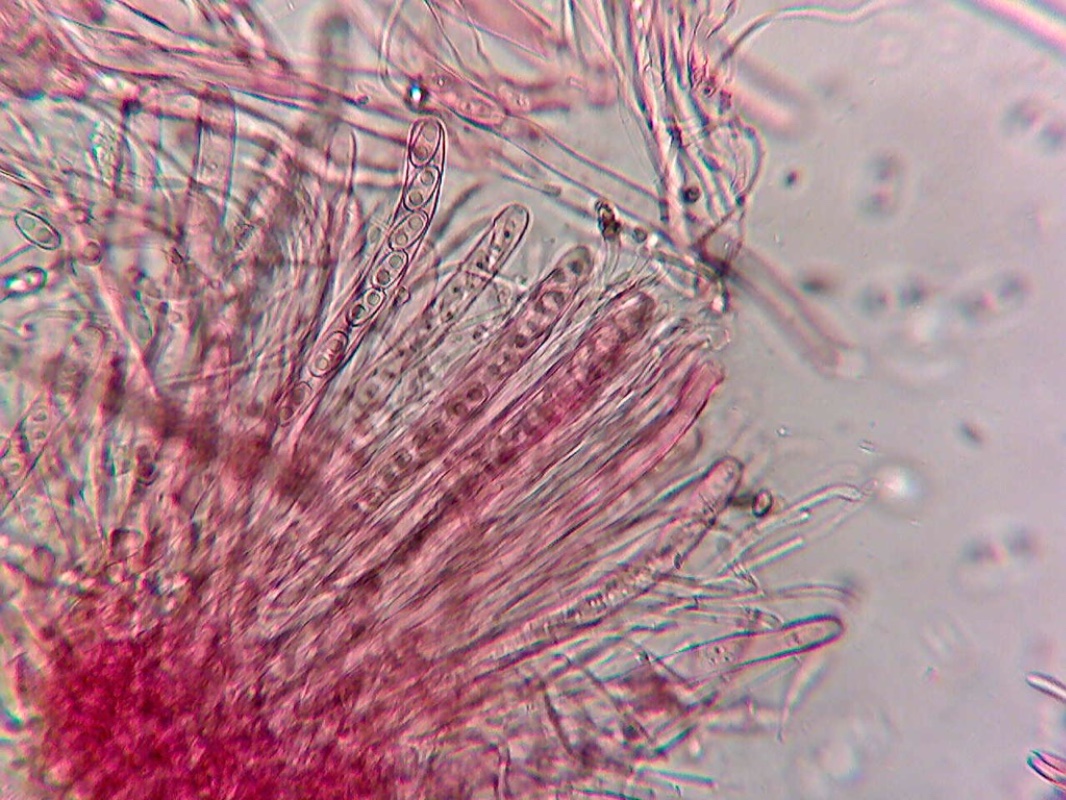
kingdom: Fungi
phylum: Ascomycota
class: Pezizomycetes
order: Pezizales
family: Otideaceae
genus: Otidea
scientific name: Otidea alutacea
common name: læder-ørebæger
